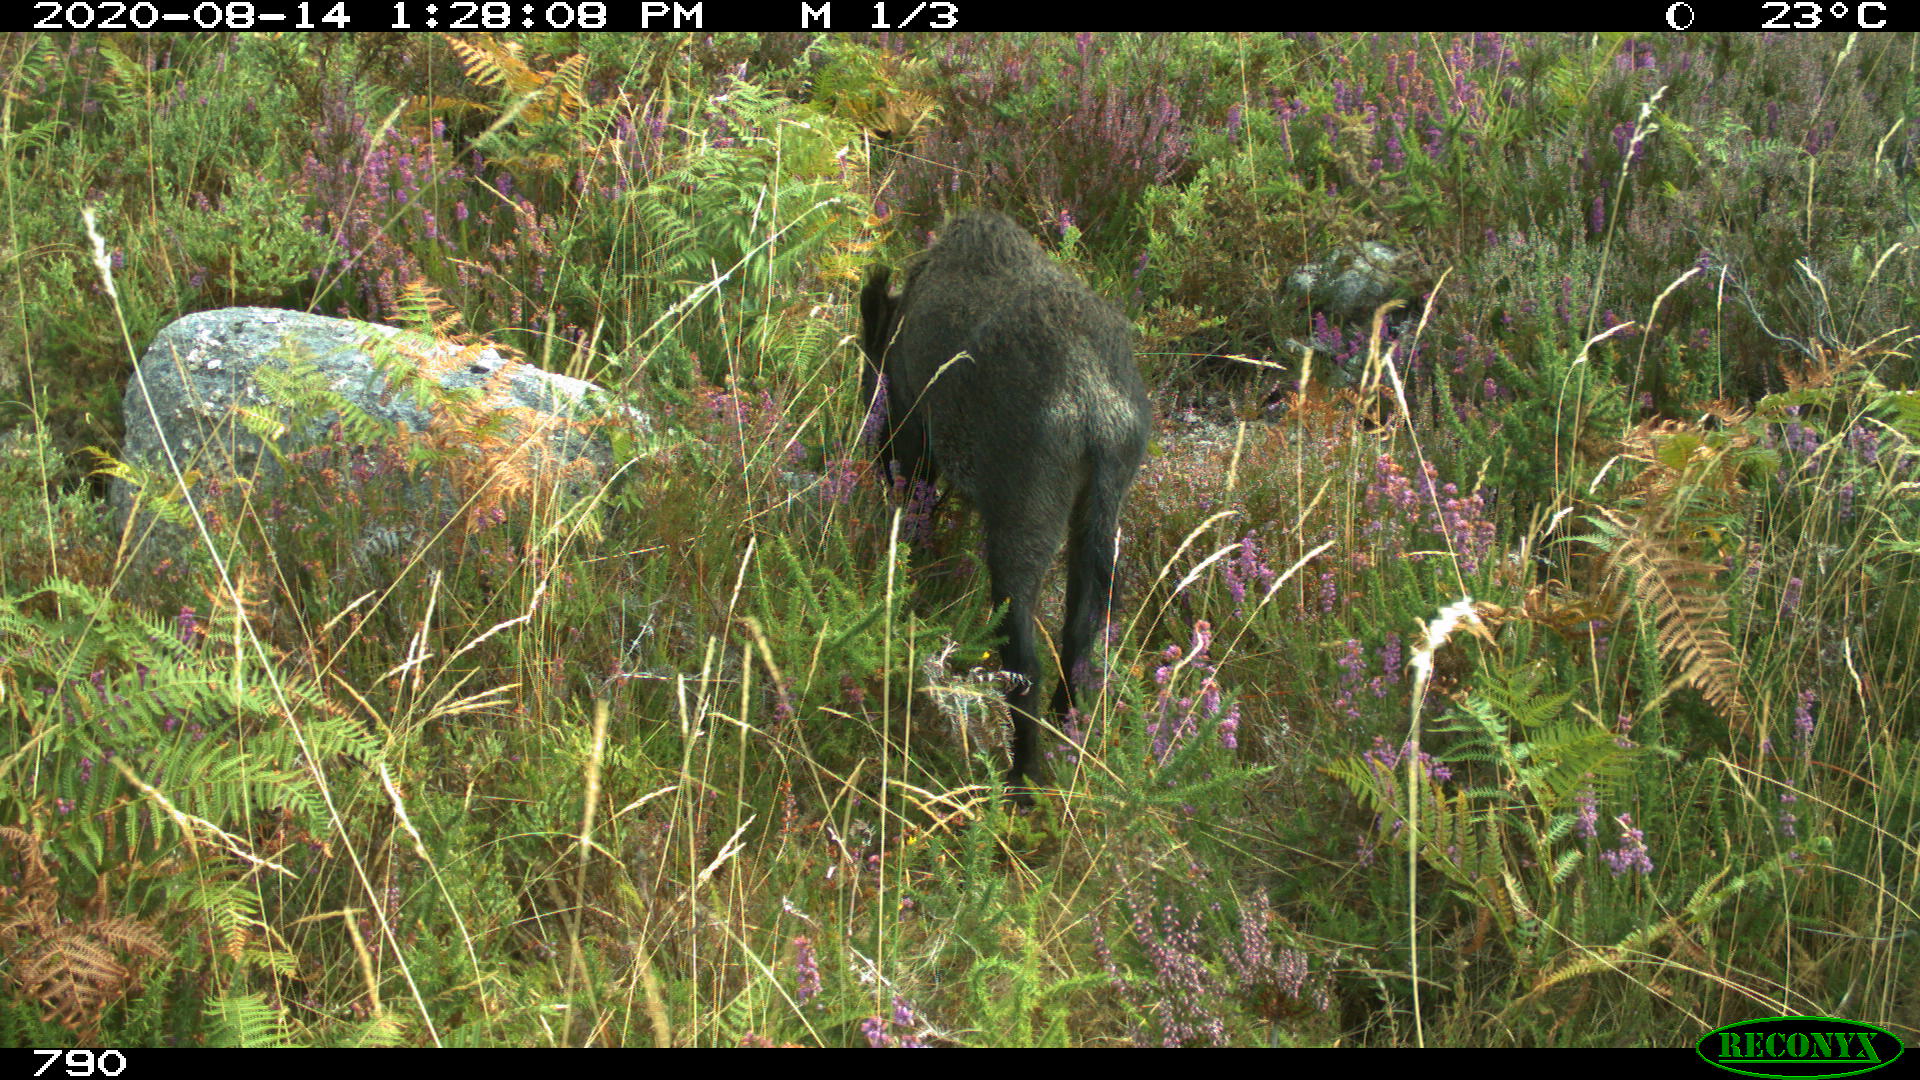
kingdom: Animalia
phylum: Chordata
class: Mammalia
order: Artiodactyla
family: Suidae
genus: Sus
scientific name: Sus scrofa
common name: Wild boar
